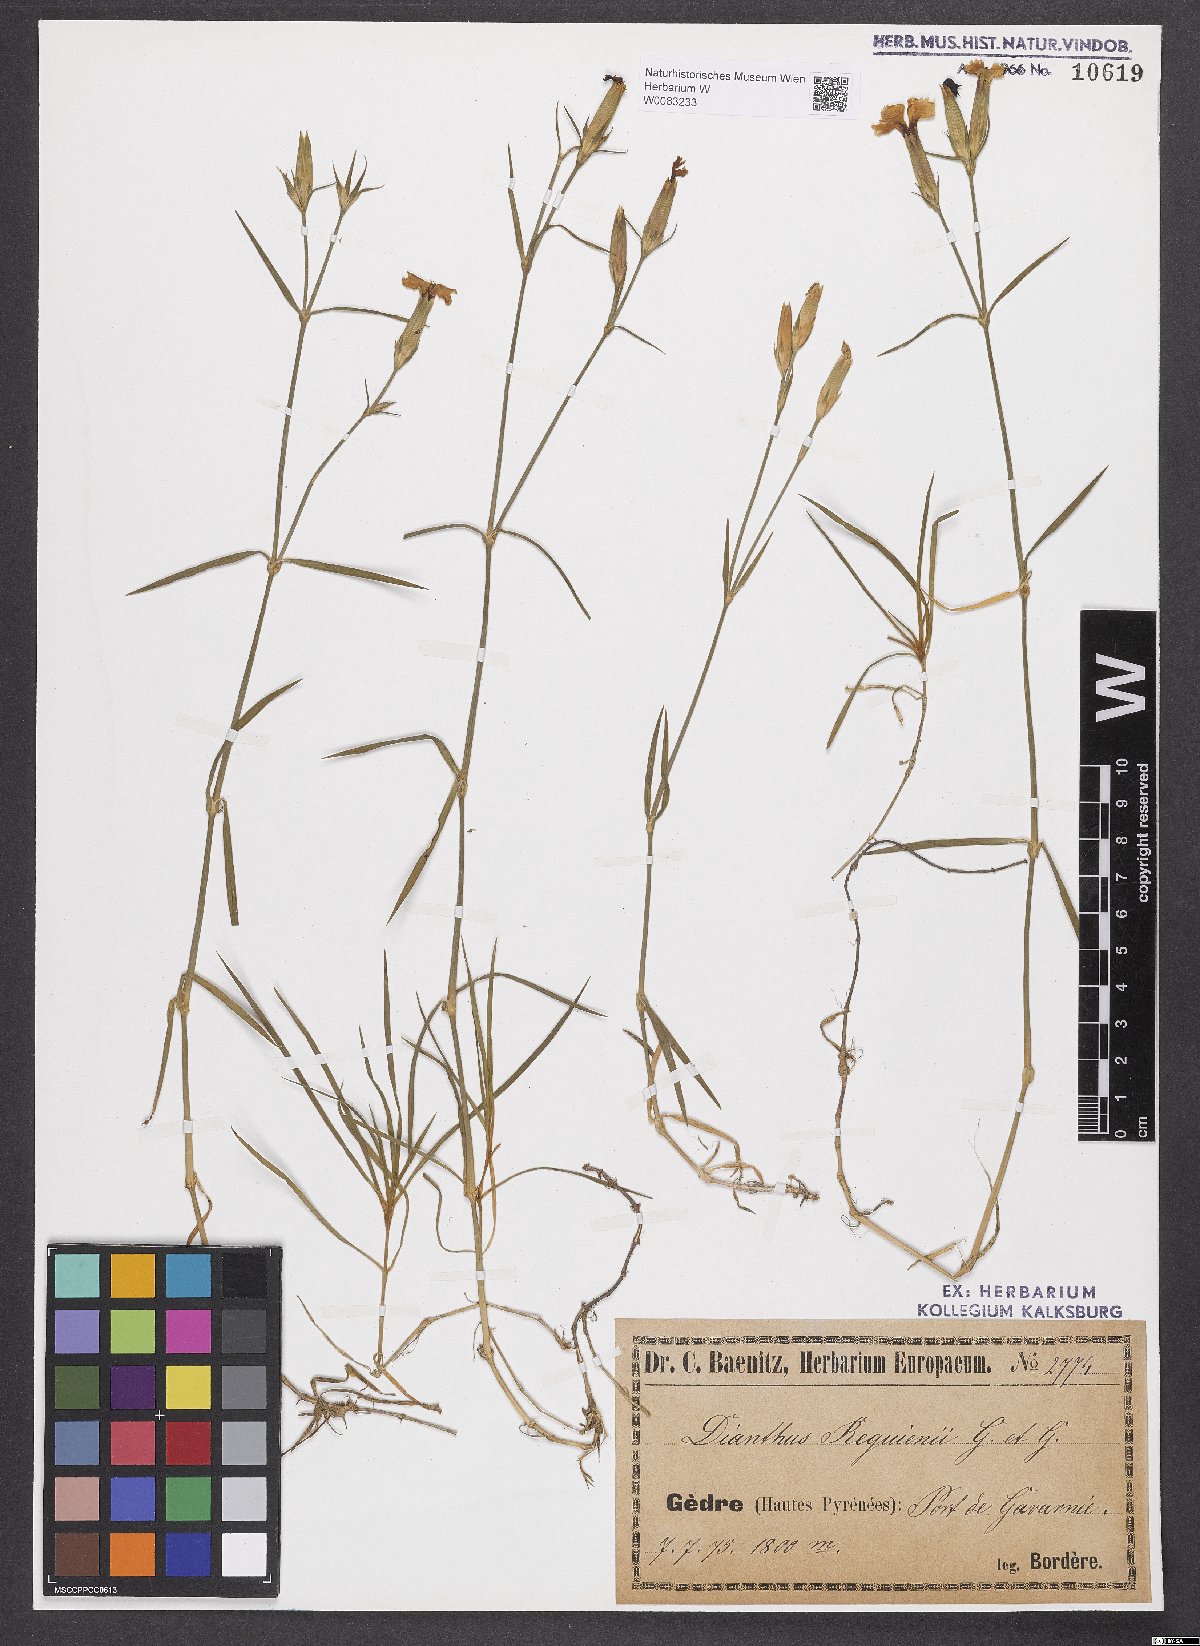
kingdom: Plantae
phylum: Tracheophyta
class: Magnoliopsida
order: Caryophyllales
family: Caryophyllaceae
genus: Dianthus
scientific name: Dianthus furcatus
